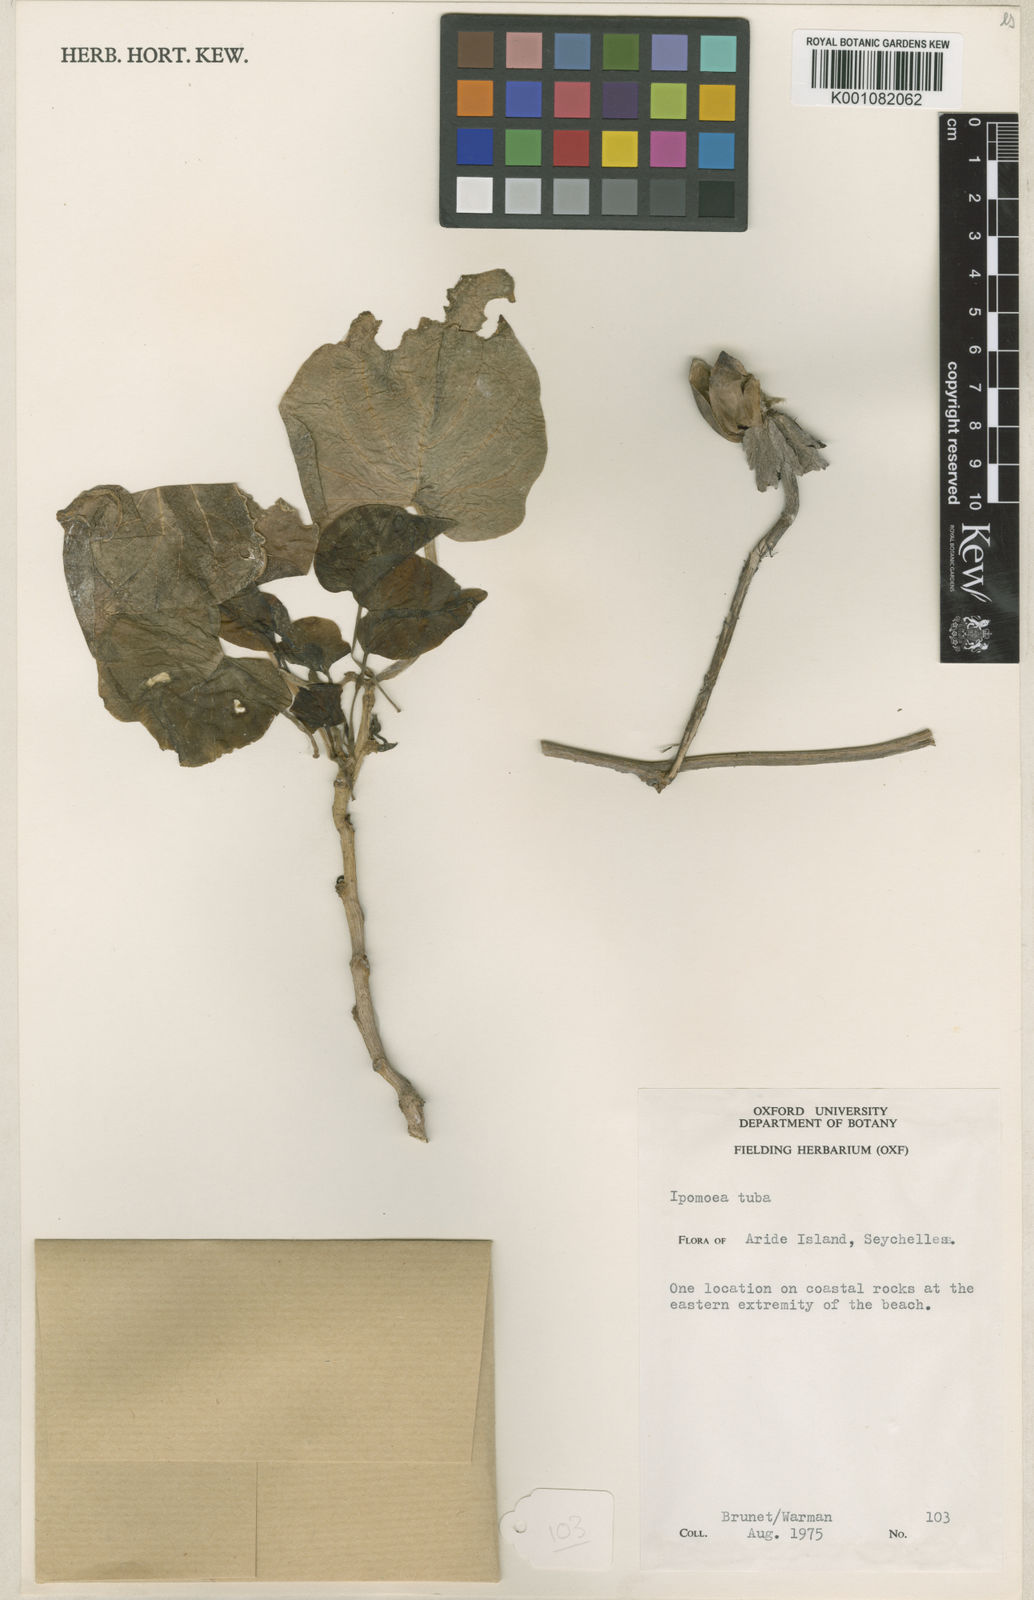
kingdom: Plantae
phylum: Tracheophyta
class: Magnoliopsida
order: Solanales
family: Convolvulaceae
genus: Ipomoea
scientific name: Ipomoea violacea
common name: Beach moonflower
